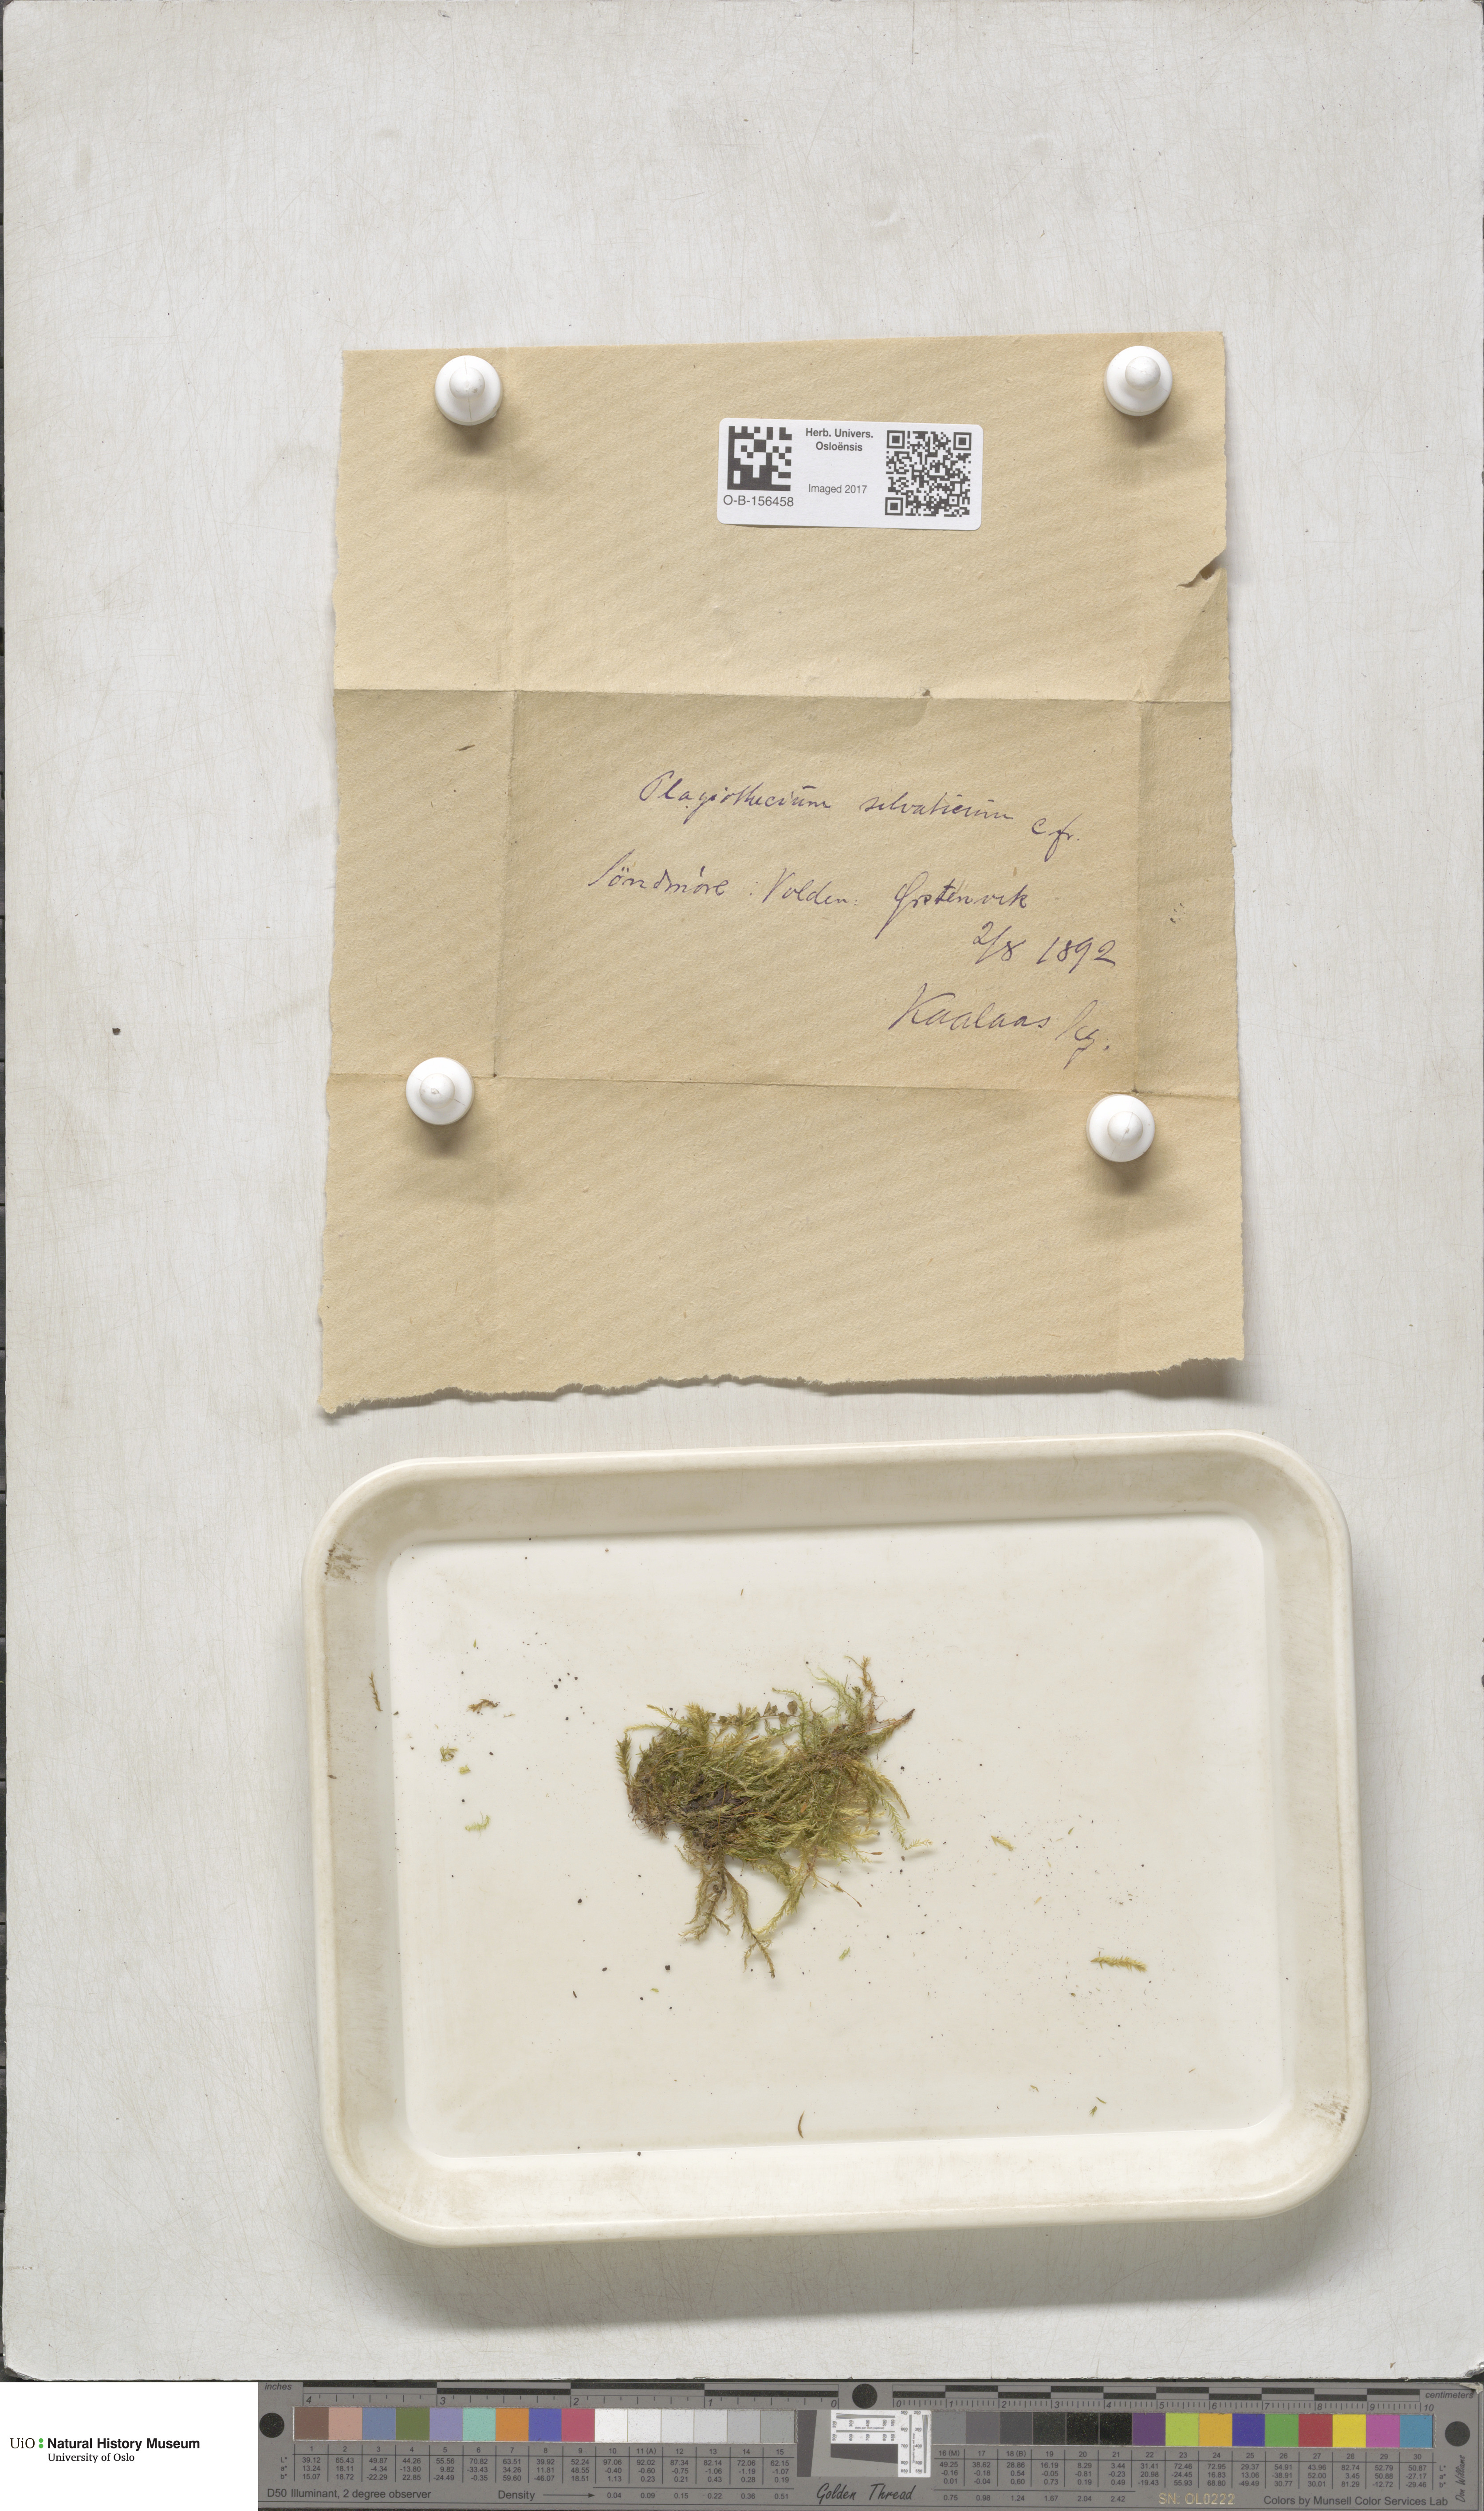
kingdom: Plantae
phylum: Bryophyta
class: Bryopsida
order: Hypnales
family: Plagiotheciaceae
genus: Plagiothecium
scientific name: Plagiothecium nemorale
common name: Woodsy silk-moss
